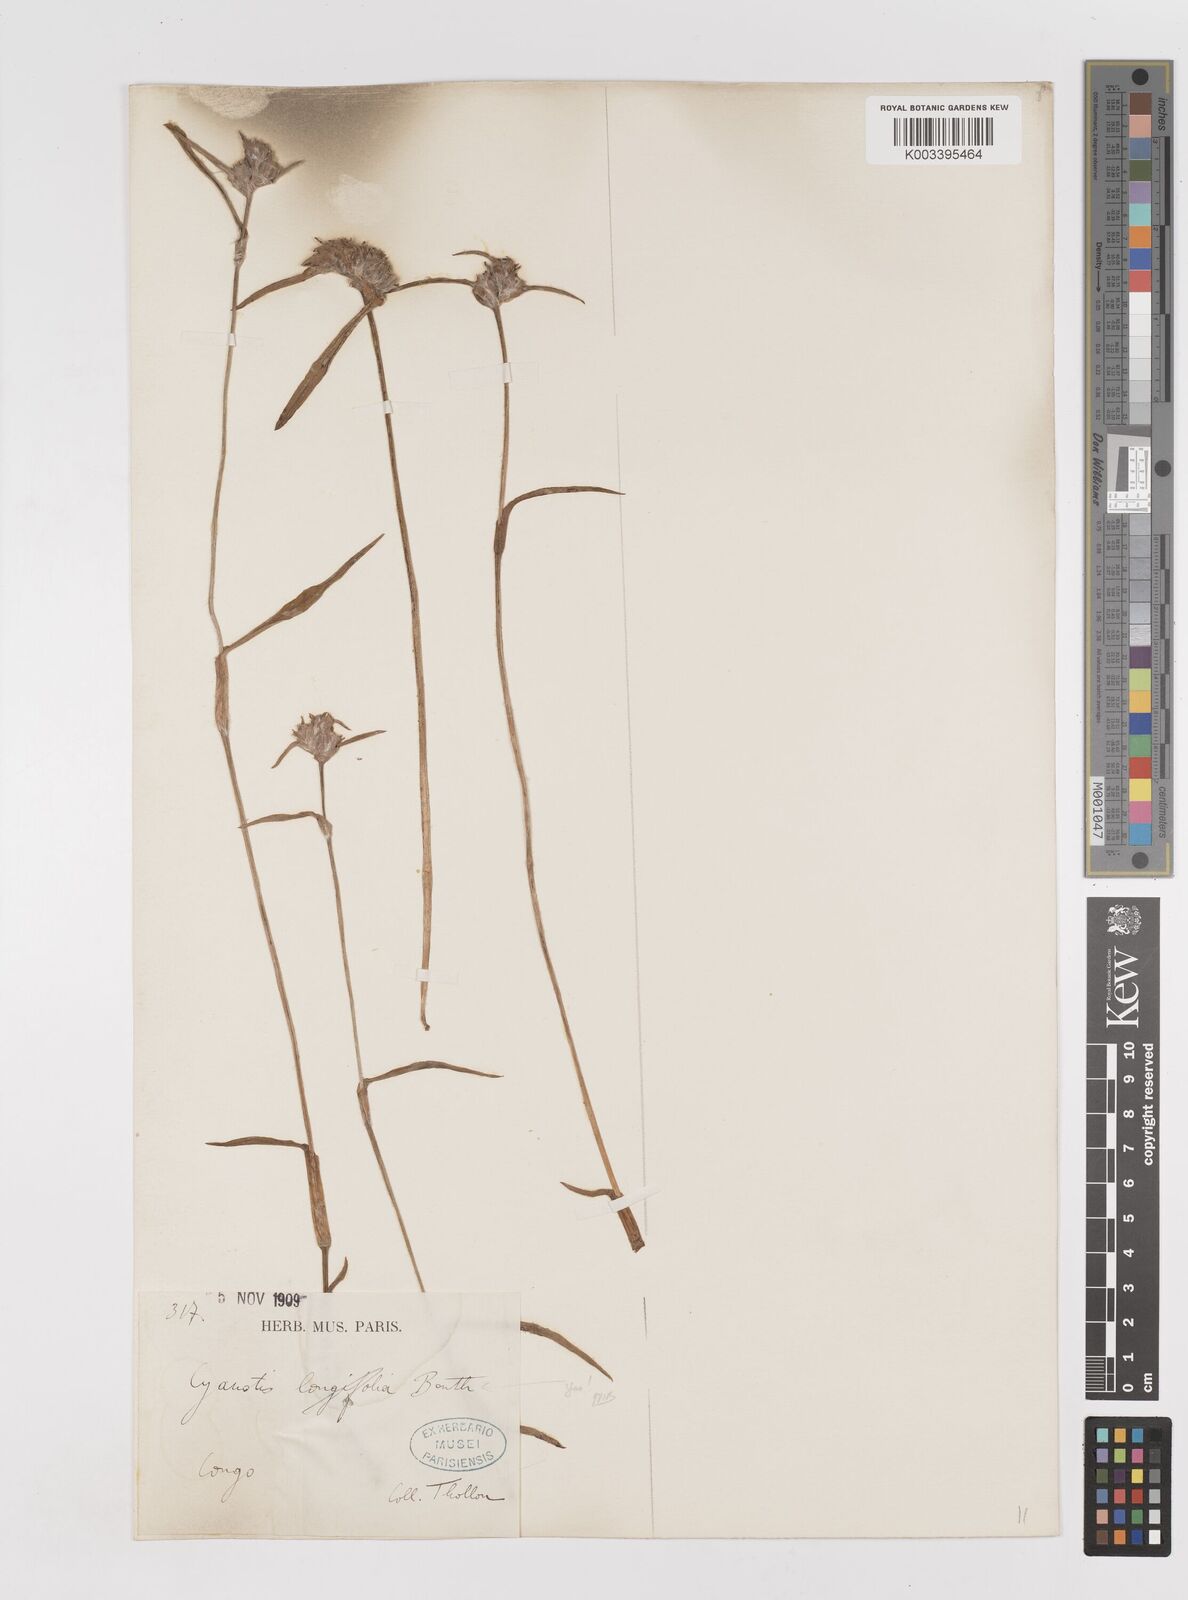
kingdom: Plantae
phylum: Tracheophyta
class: Liliopsida
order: Commelinales
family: Commelinaceae
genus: Cyanotis
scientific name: Cyanotis longifolia
